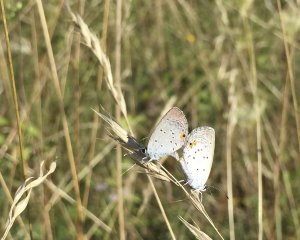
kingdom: Animalia
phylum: Arthropoda
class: Insecta
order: Lepidoptera
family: Lycaenidae
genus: Elkalyce
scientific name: Elkalyce comyntas
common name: Eastern Tailed-Blue
